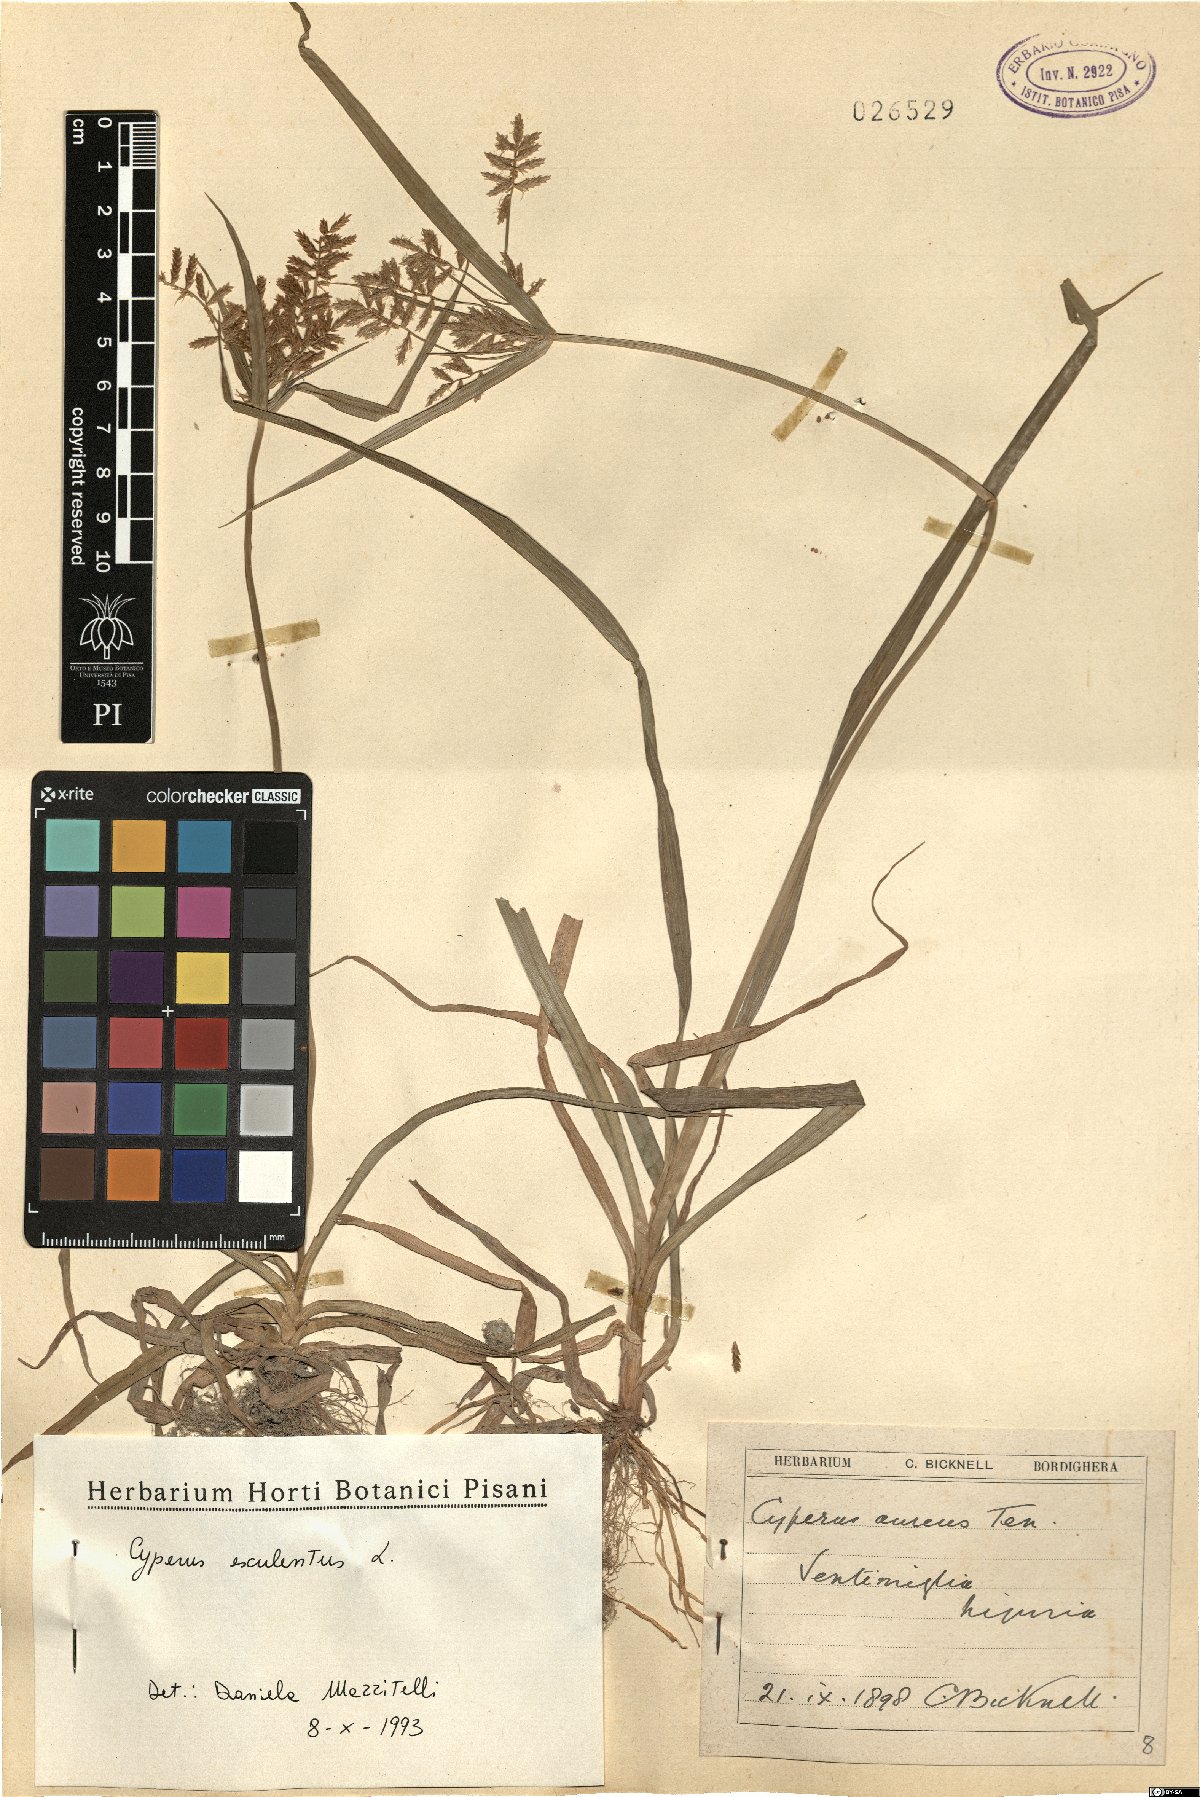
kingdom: Plantae
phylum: Tracheophyta
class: Liliopsida
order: Poales
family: Cyperaceae
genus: Cyperus
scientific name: Cyperus esculentus
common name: Yellow nutsedge
